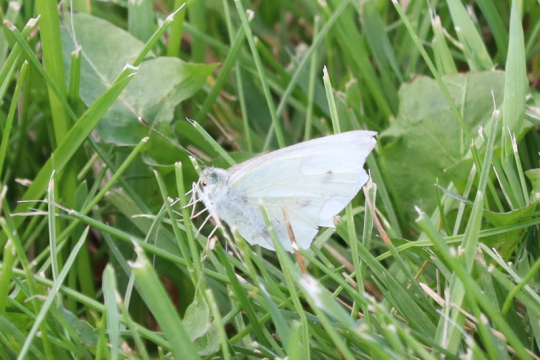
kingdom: Animalia
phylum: Arthropoda
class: Insecta
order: Lepidoptera
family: Pieridae
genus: Pieris
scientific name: Pieris rapae
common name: Cabbage White
